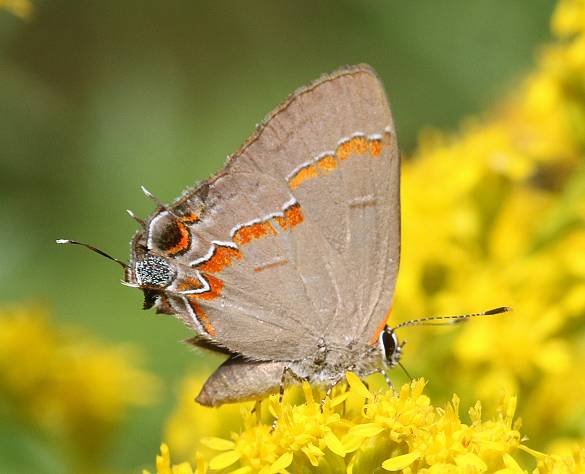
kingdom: Animalia
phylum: Arthropoda
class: Insecta
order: Lepidoptera
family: Lycaenidae
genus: Calycopis
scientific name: Calycopis cecrops
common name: Red-banded Hairstreak
